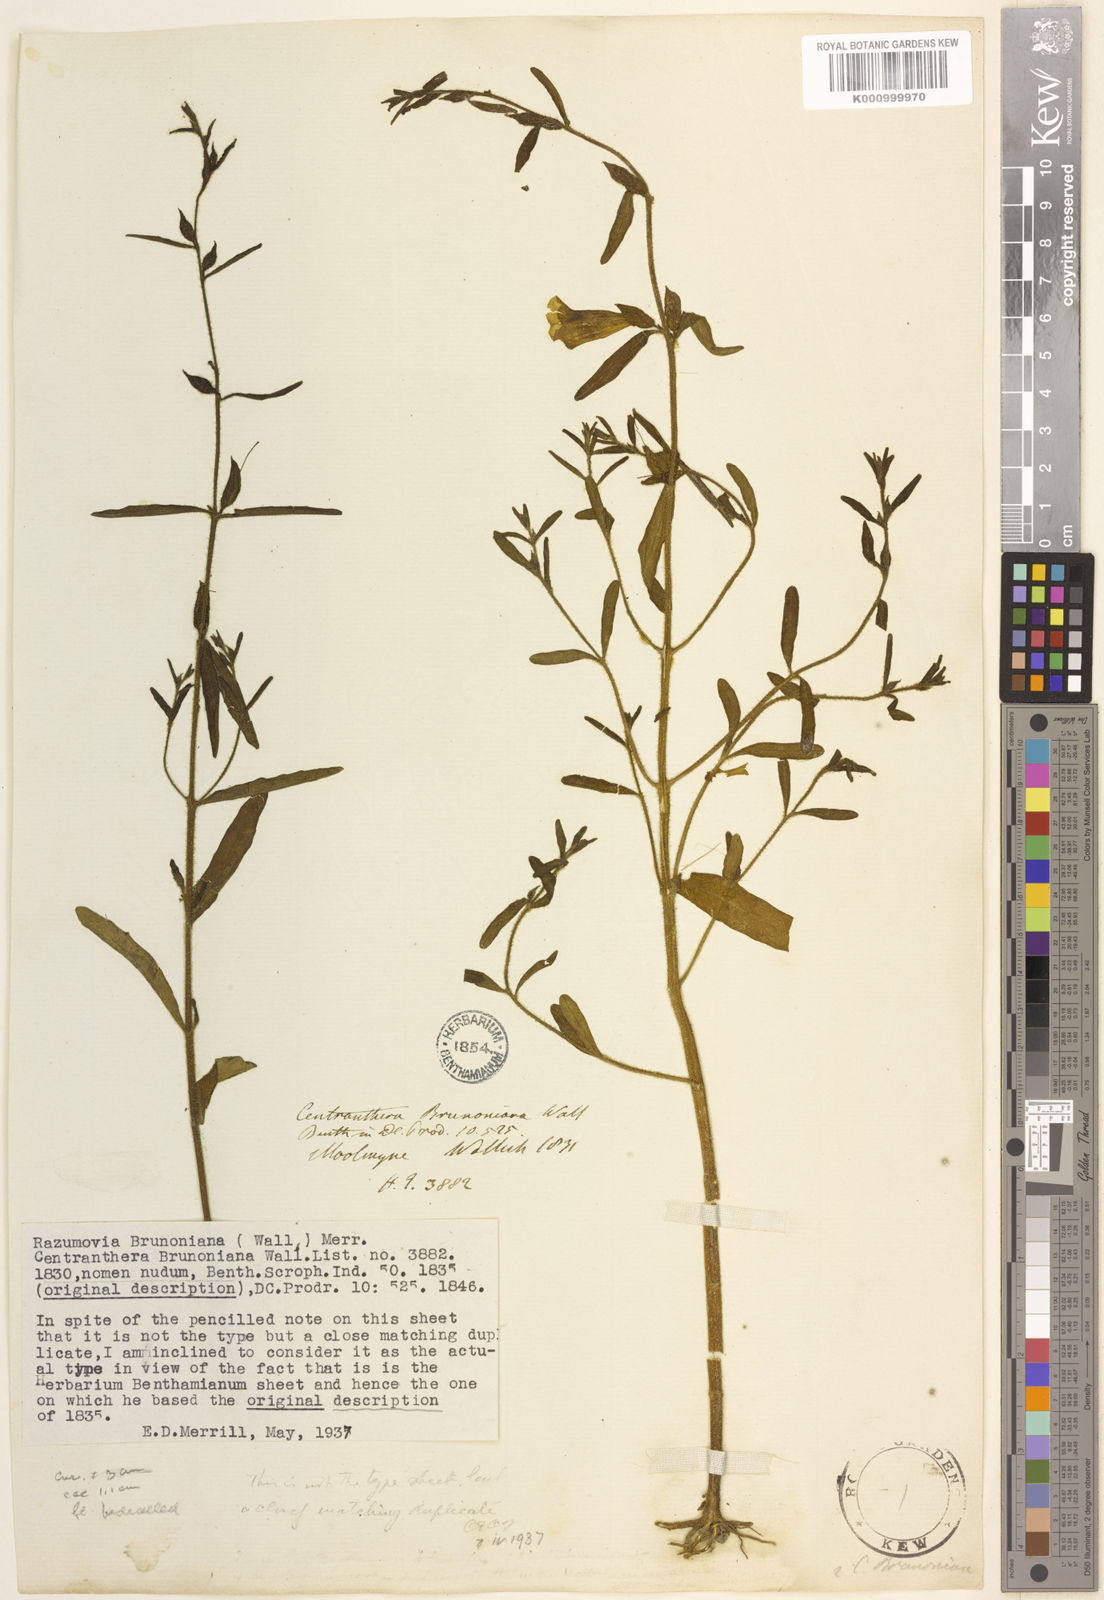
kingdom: Plantae
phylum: Tracheophyta
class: Magnoliopsida
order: Lamiales
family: Orobanchaceae
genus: Centranthera
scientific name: Centranthera brunoniana
